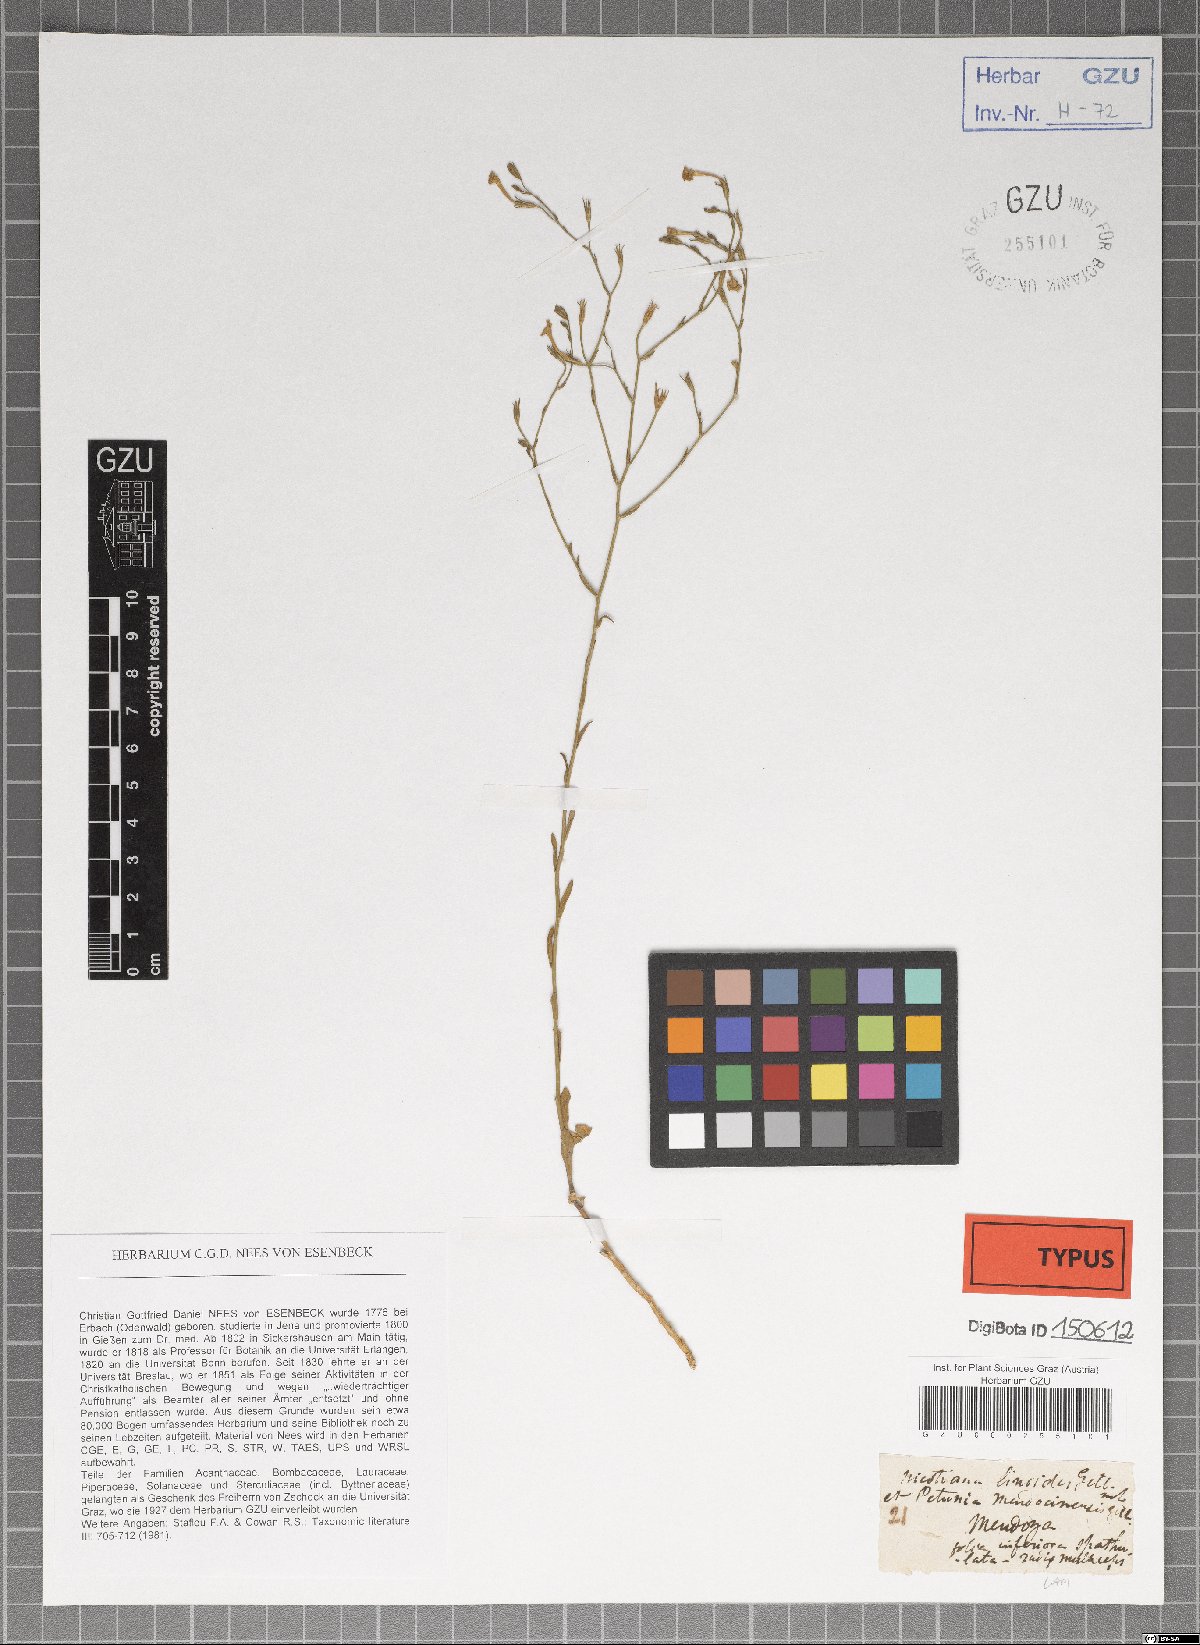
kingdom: Plantae
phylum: Tracheophyta
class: Magnoliopsida
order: Solanales
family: Solanaceae
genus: Leptoglossis
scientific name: Leptoglossis linifolia
